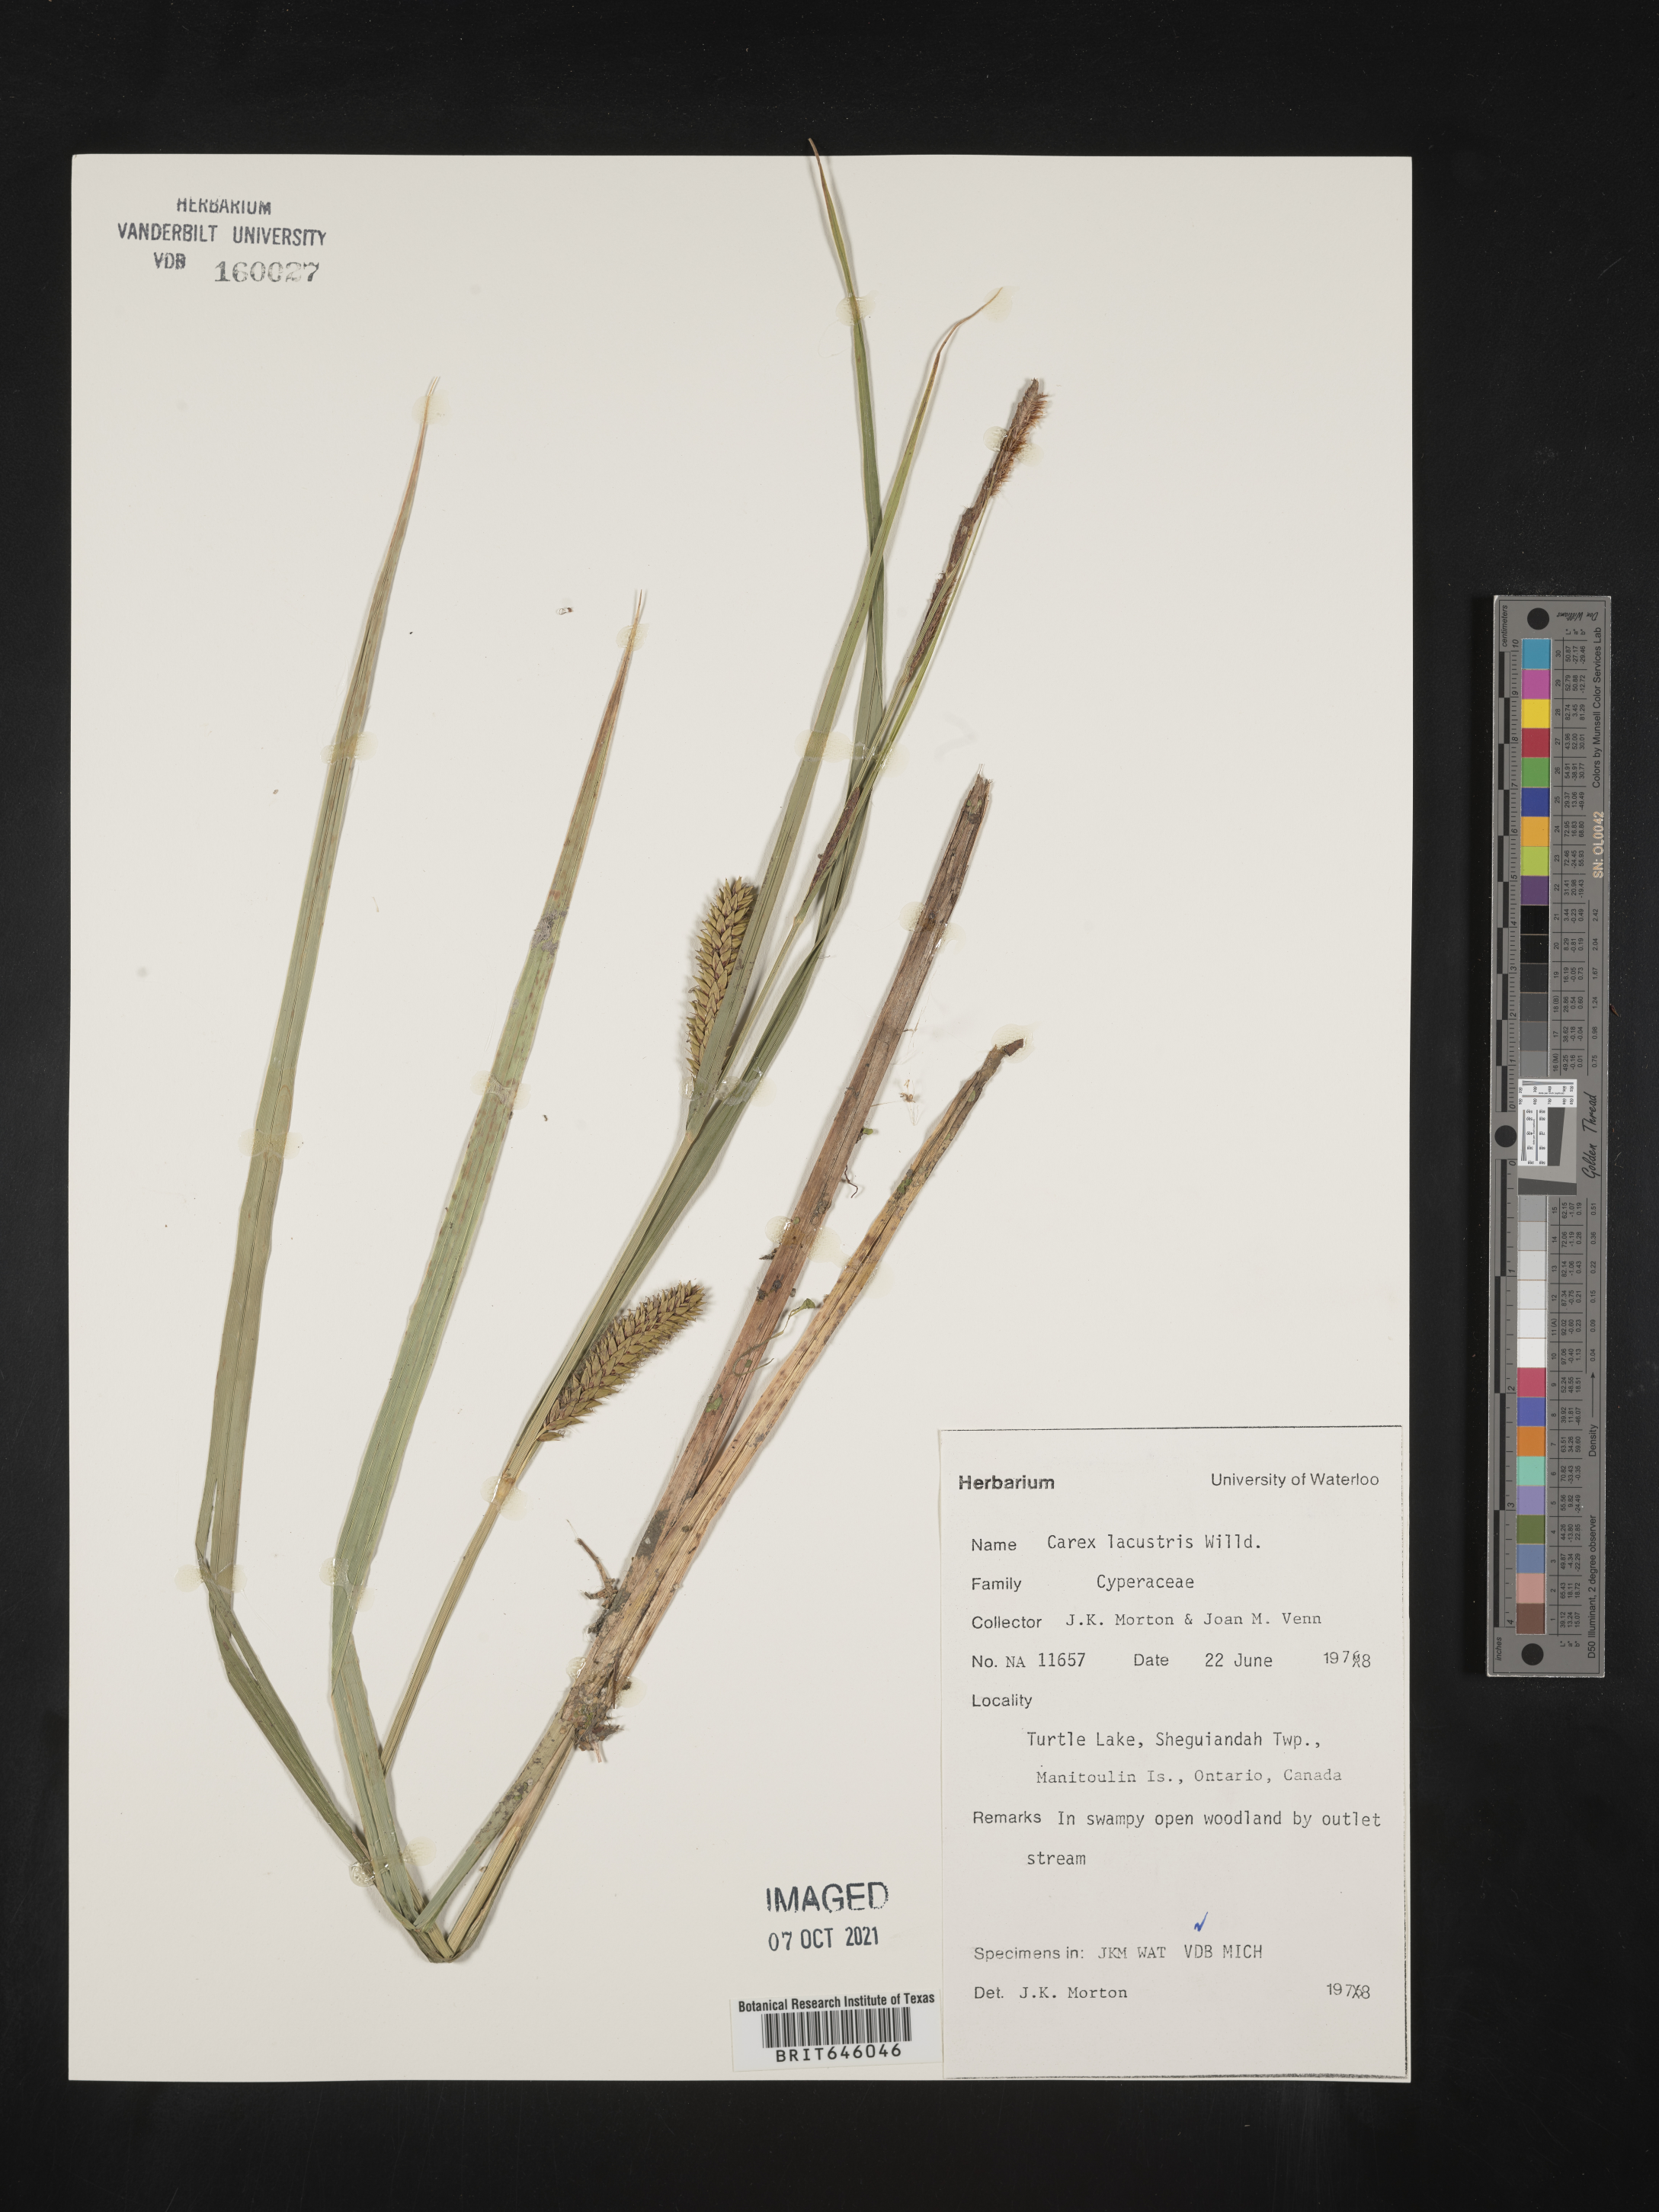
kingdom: Plantae
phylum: Tracheophyta
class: Liliopsida
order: Poales
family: Cyperaceae
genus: Carex
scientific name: Carex lacustris
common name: Common lake sedge
